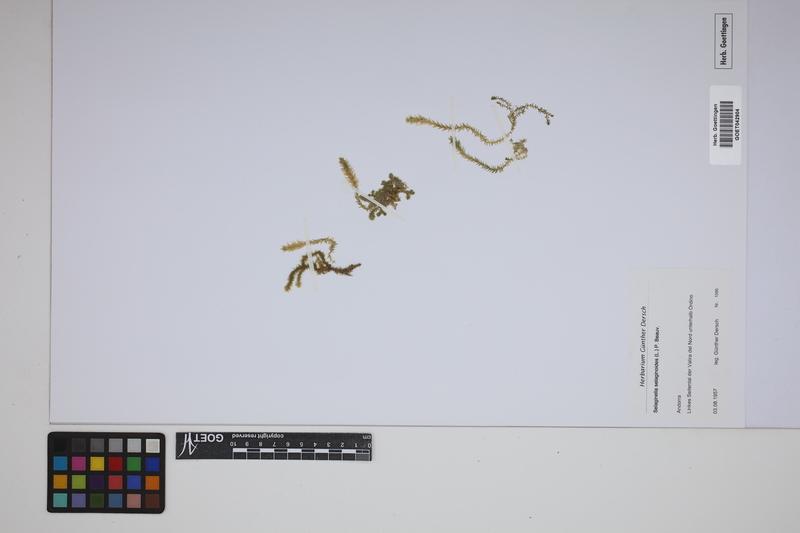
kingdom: Plantae
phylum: Tracheophyta
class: Lycopodiopsida
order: Selaginellales
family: Selaginellaceae
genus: Selaginella
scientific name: Selaginella selaginoides
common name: Prickly mountain-moss
